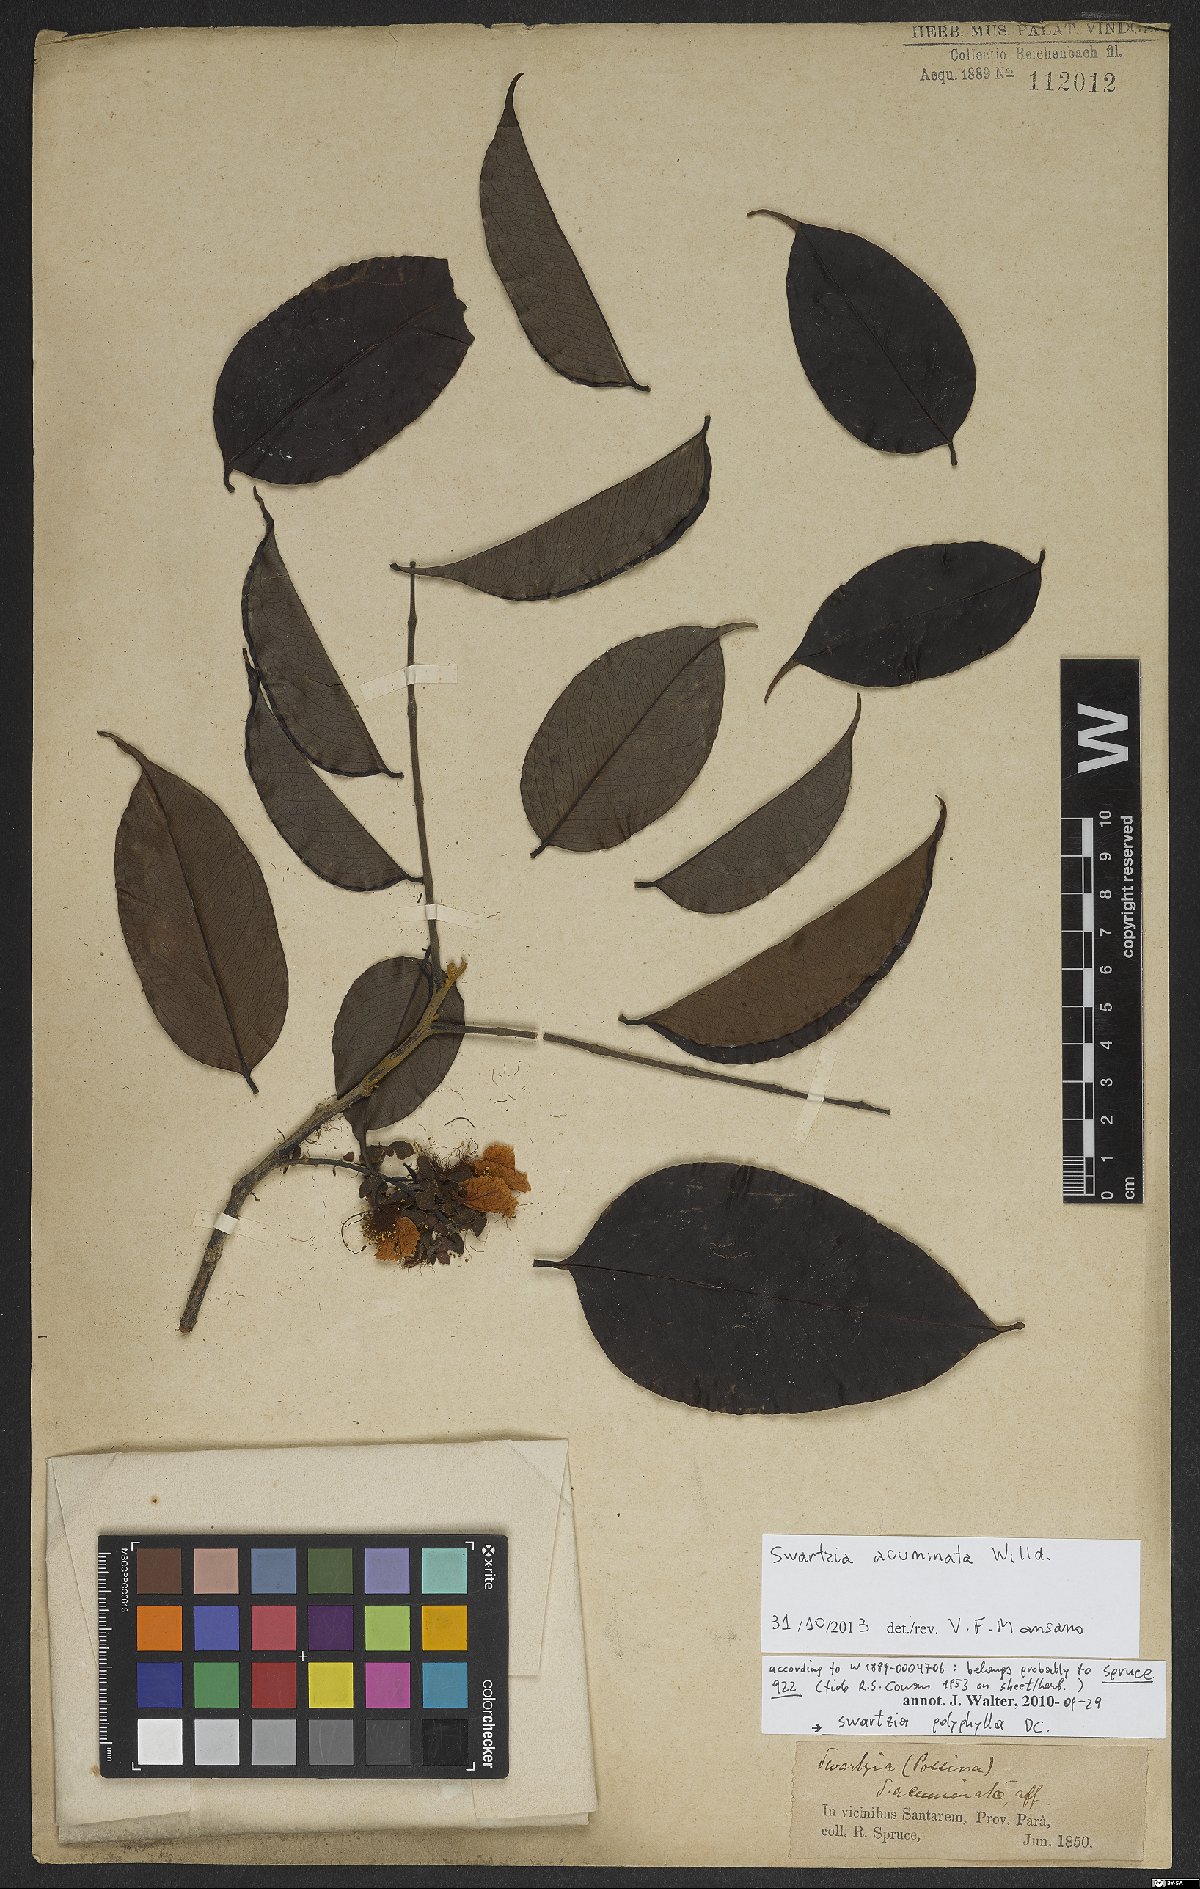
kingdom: Plantae
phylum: Tracheophyta
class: Magnoliopsida
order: Fabales
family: Fabaceae
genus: Swartzia
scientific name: Swartzia acuminata
